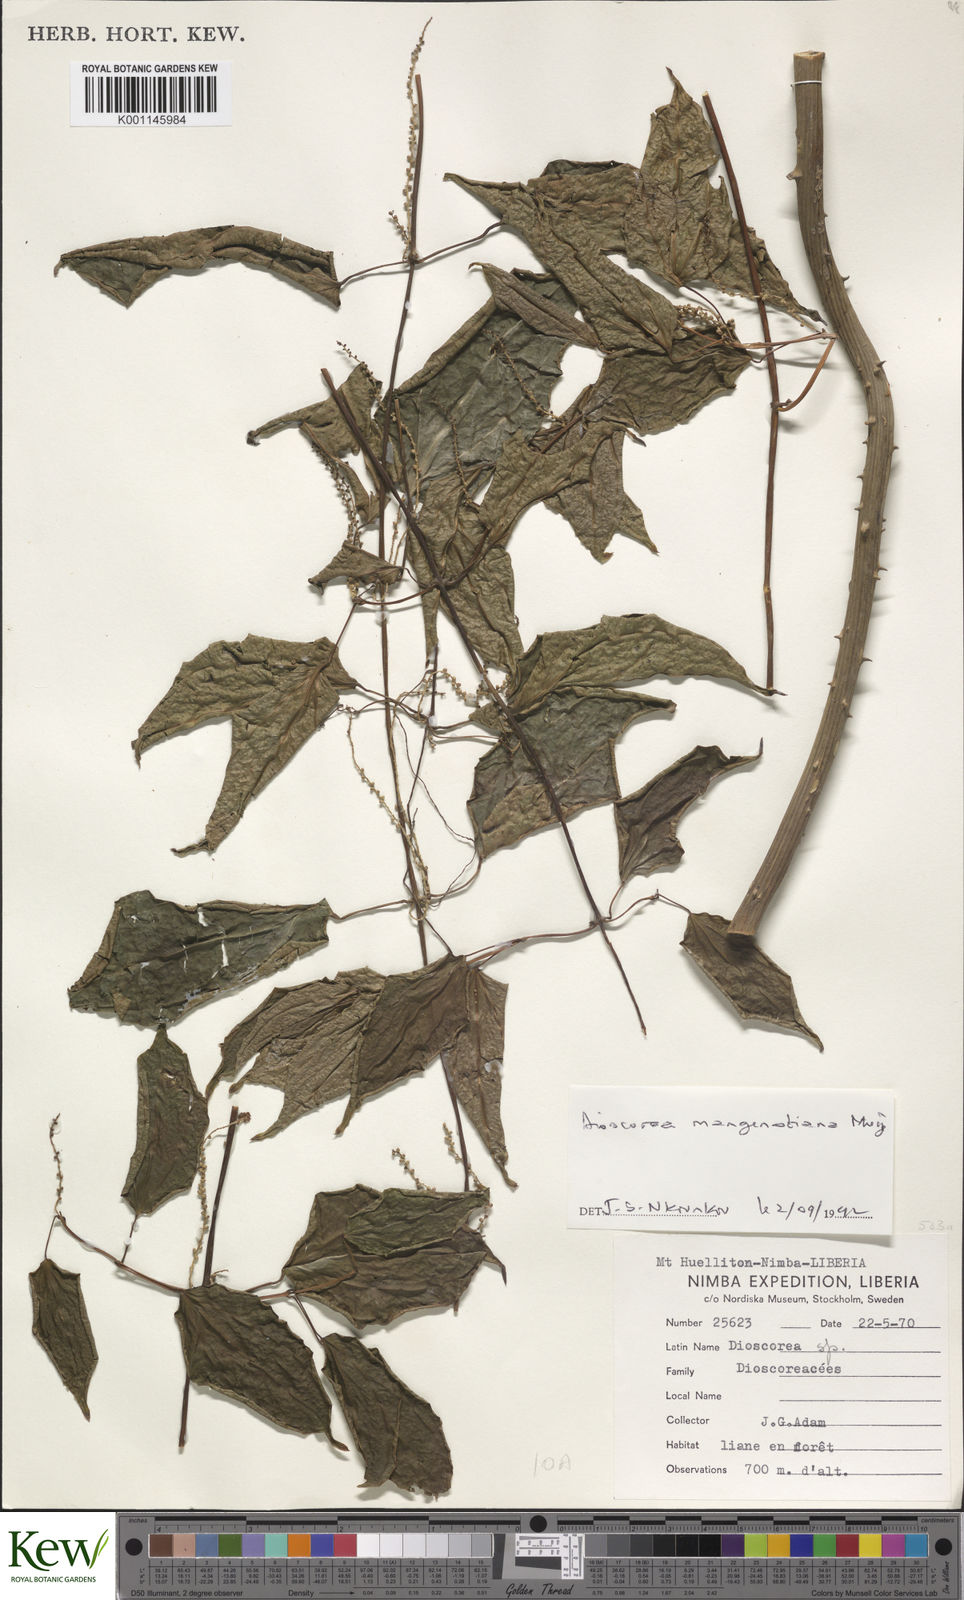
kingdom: Plantae
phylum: Tracheophyta
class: Liliopsida
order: Dioscoreales
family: Dioscoreaceae
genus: Dioscorea
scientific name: Dioscorea
